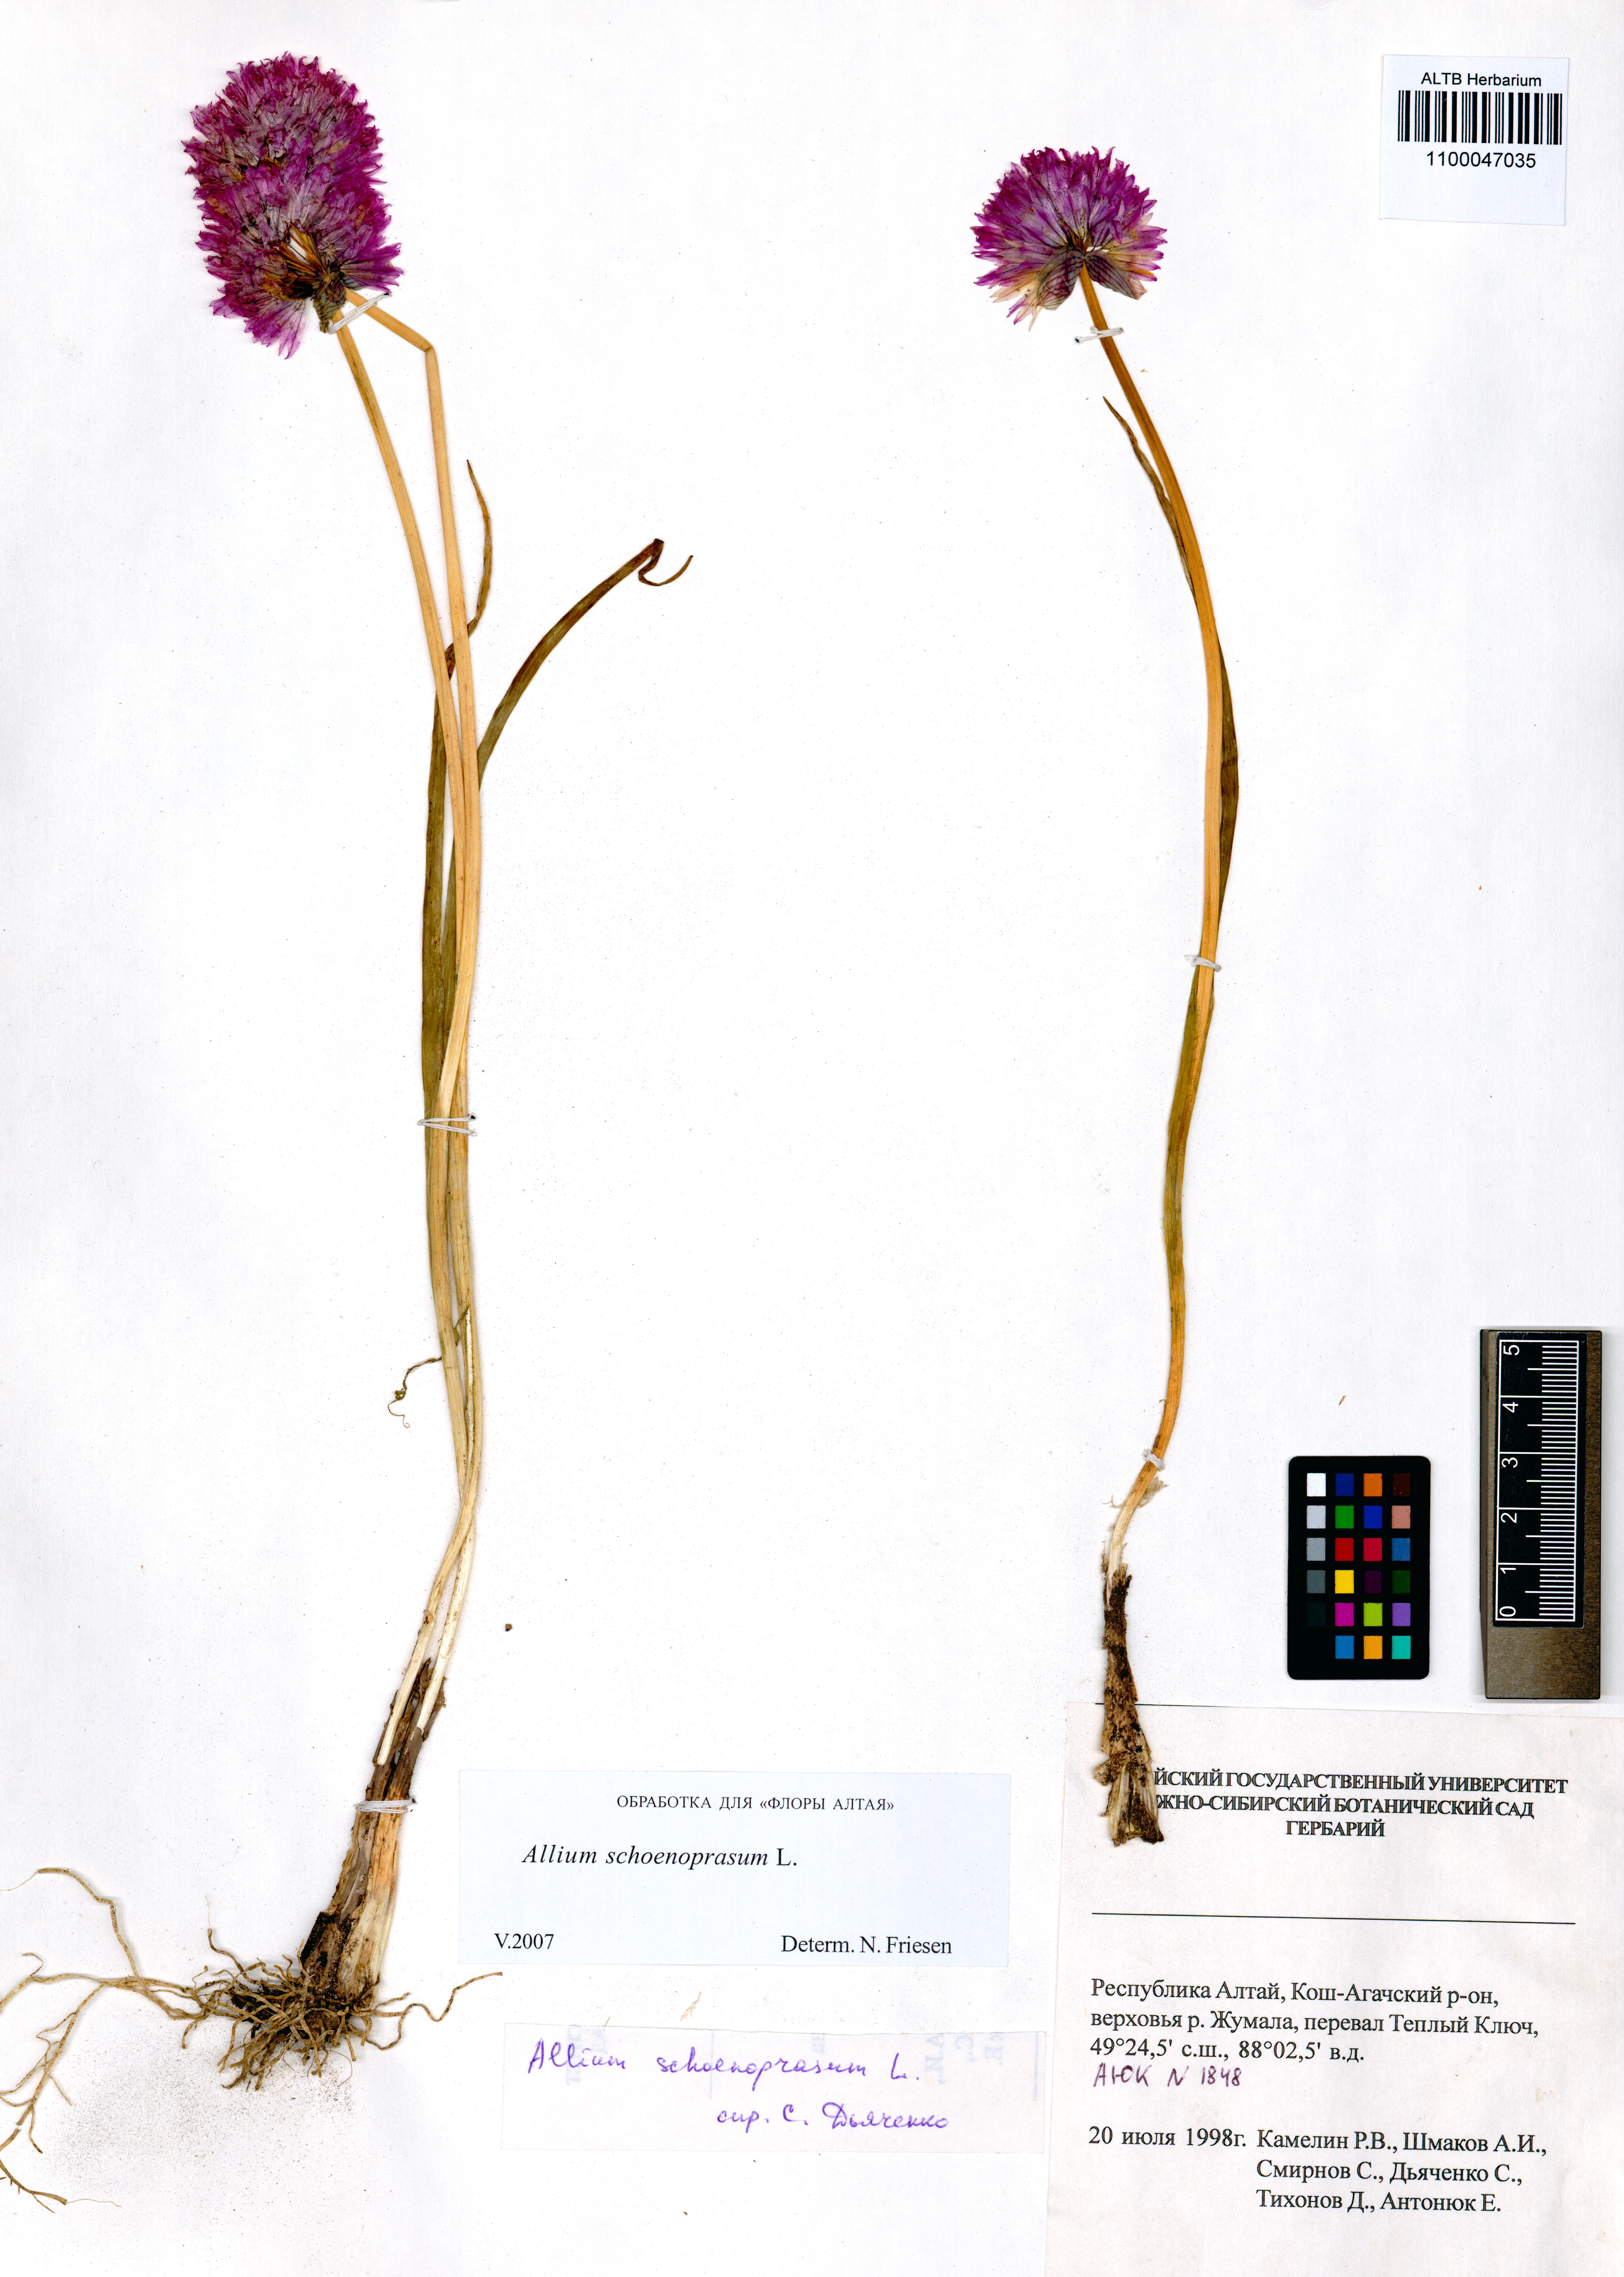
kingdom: Plantae
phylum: Tracheophyta
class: Liliopsida
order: Asparagales
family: Amaryllidaceae
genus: Allium
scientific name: Allium schoenoprasum
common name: Chives
